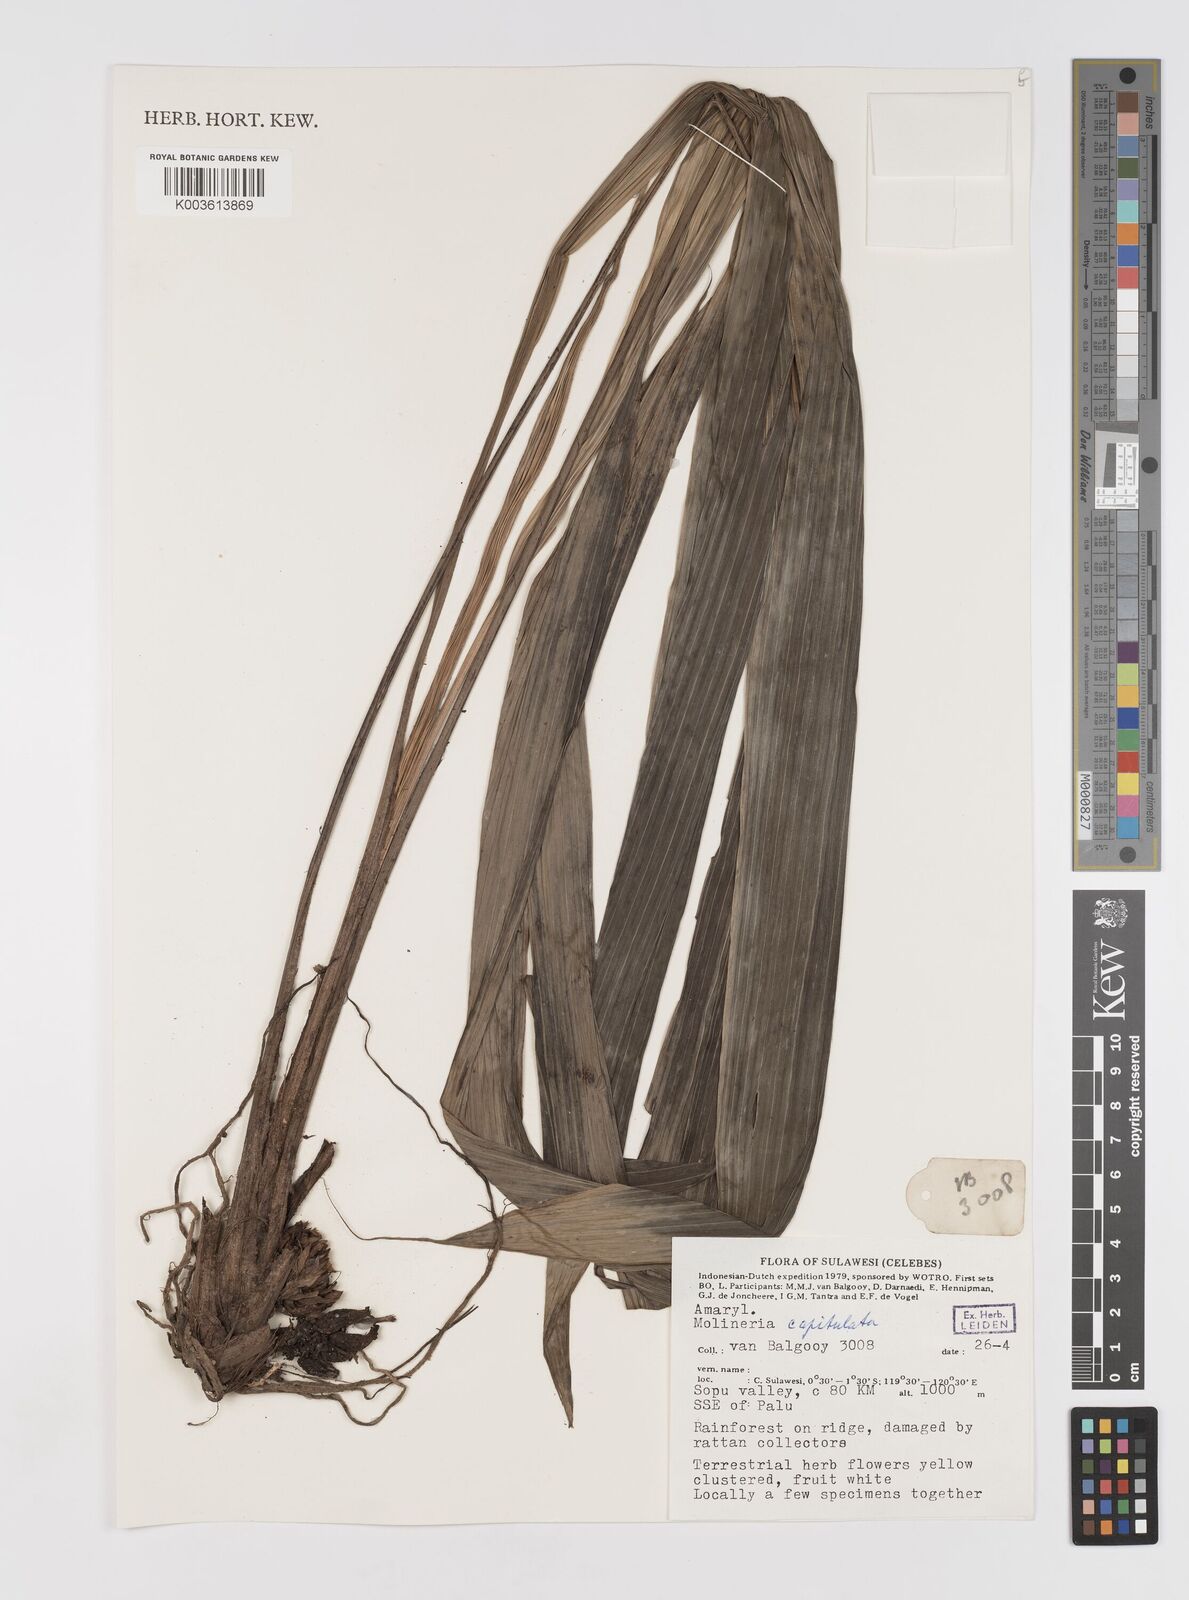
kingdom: Plantae
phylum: Tracheophyta
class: Liliopsida
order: Asparagales
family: Hypoxidaceae
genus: Curculigo
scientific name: Curculigo capitulata
